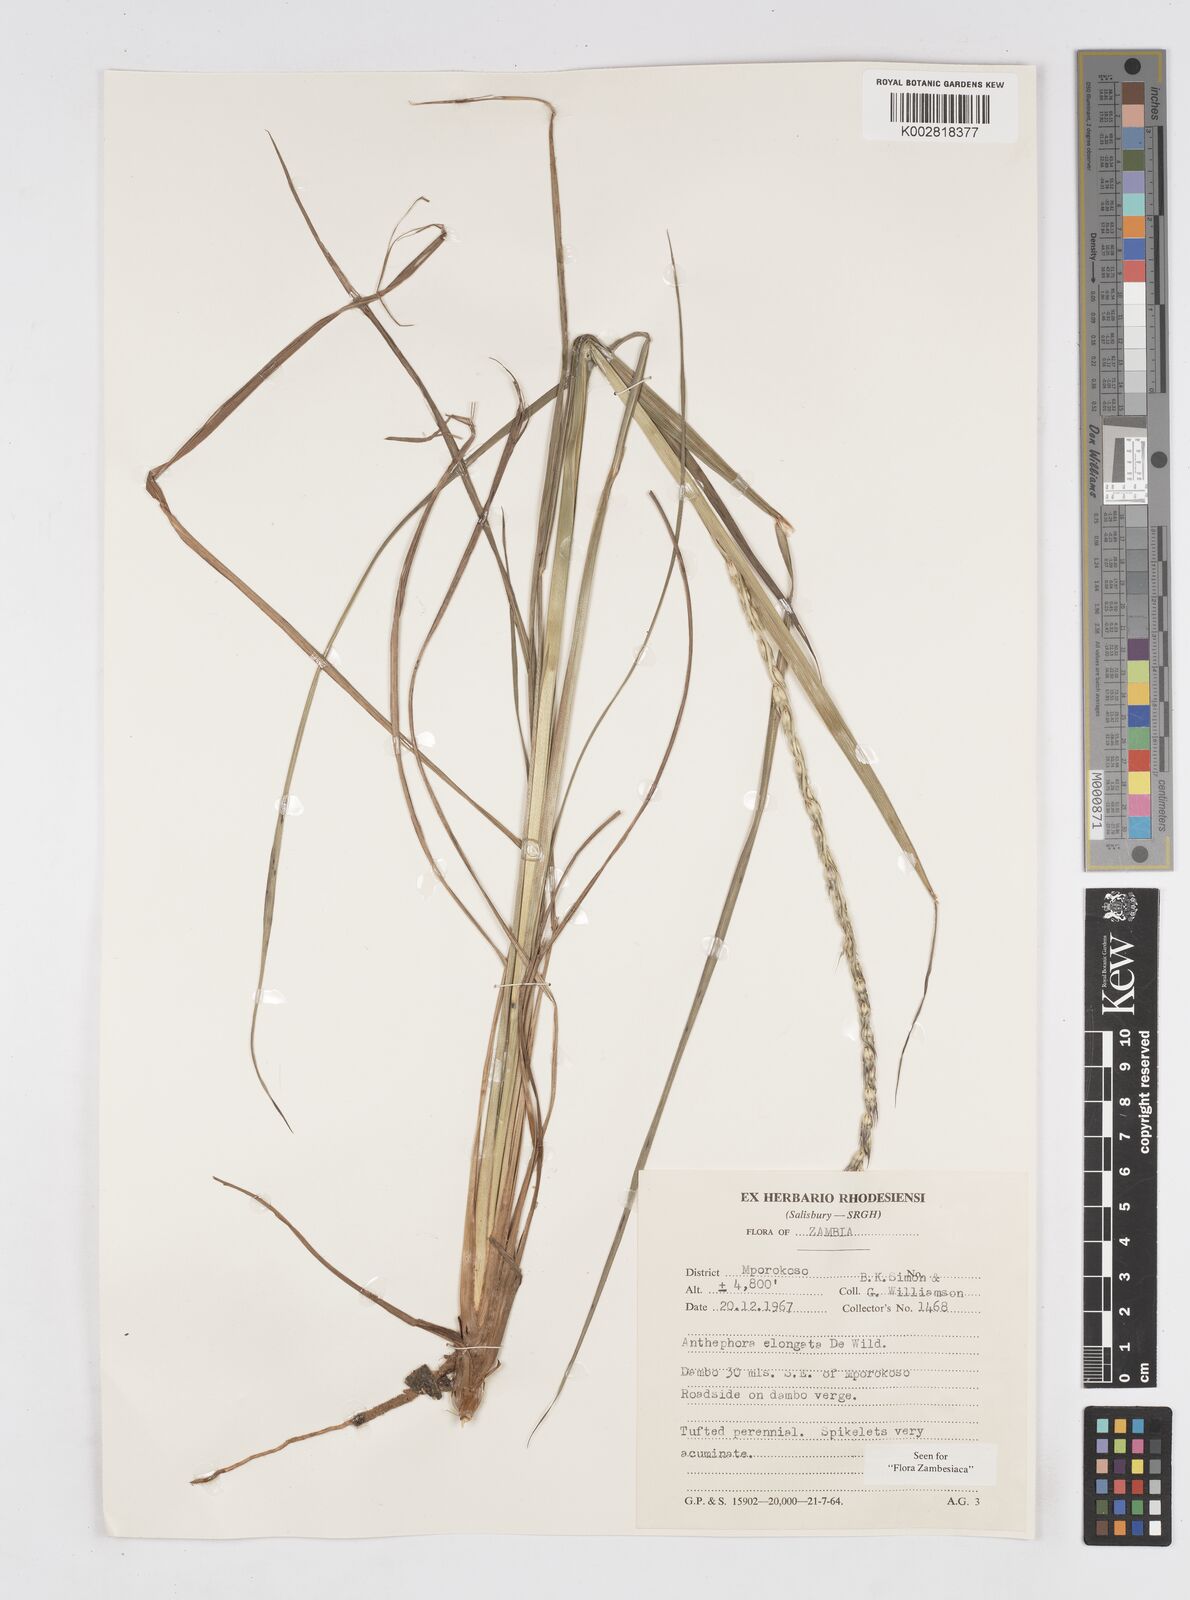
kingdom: Plantae
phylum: Tracheophyta
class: Liliopsida
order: Poales
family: Poaceae
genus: Anthephora
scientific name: Anthephora elongata
